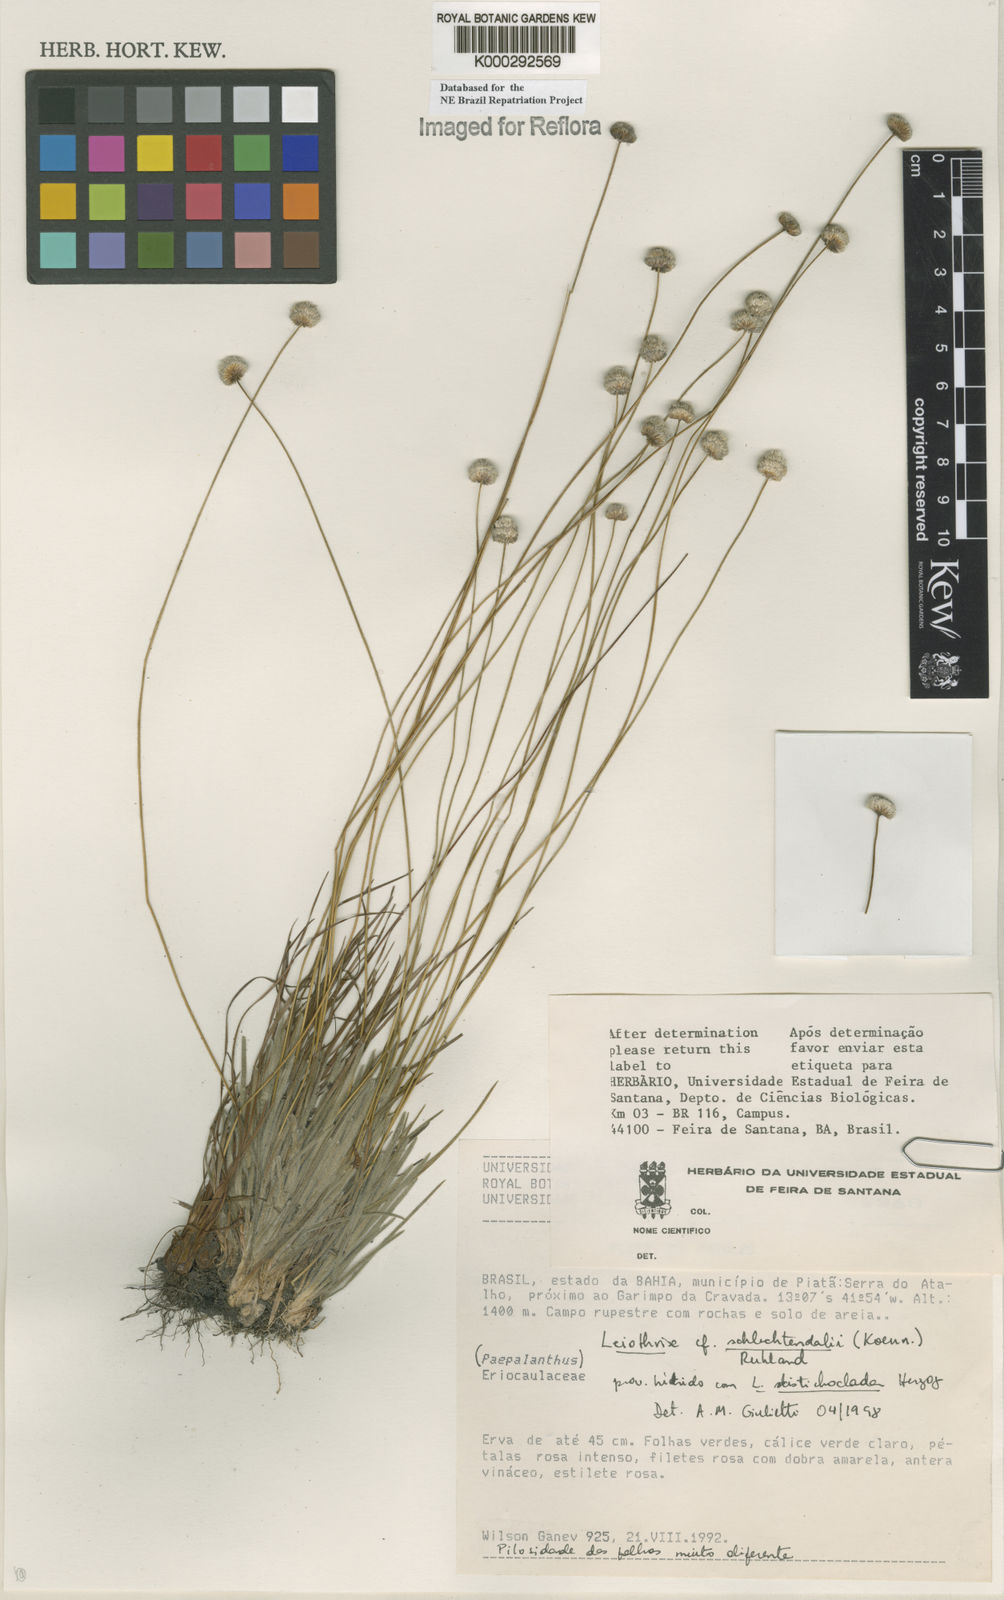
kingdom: Plantae
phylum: Tracheophyta
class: Liliopsida
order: Poales
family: Eriocaulaceae
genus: Leiothrix
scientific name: Leiothrix schlechtendalii
